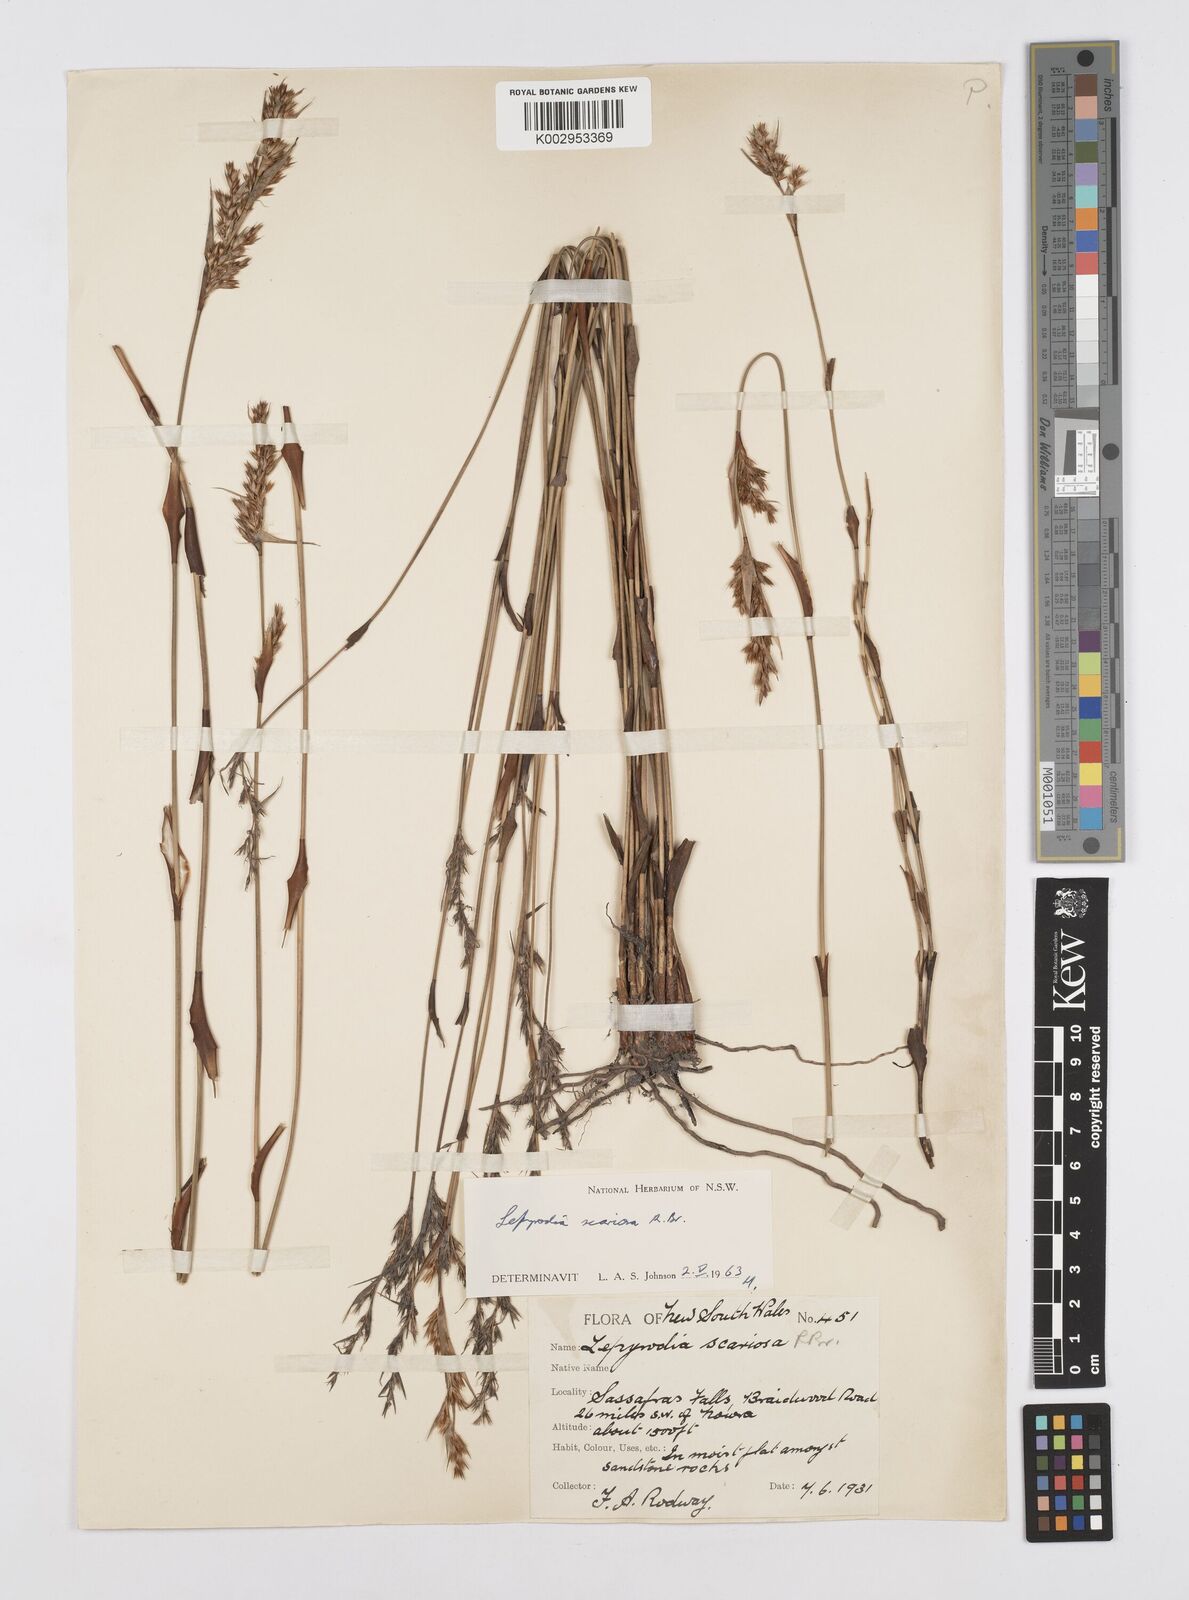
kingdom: Plantae
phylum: Tracheophyta
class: Liliopsida
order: Poales
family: Restionaceae
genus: Lepyrodia
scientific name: Lepyrodia scariosa
